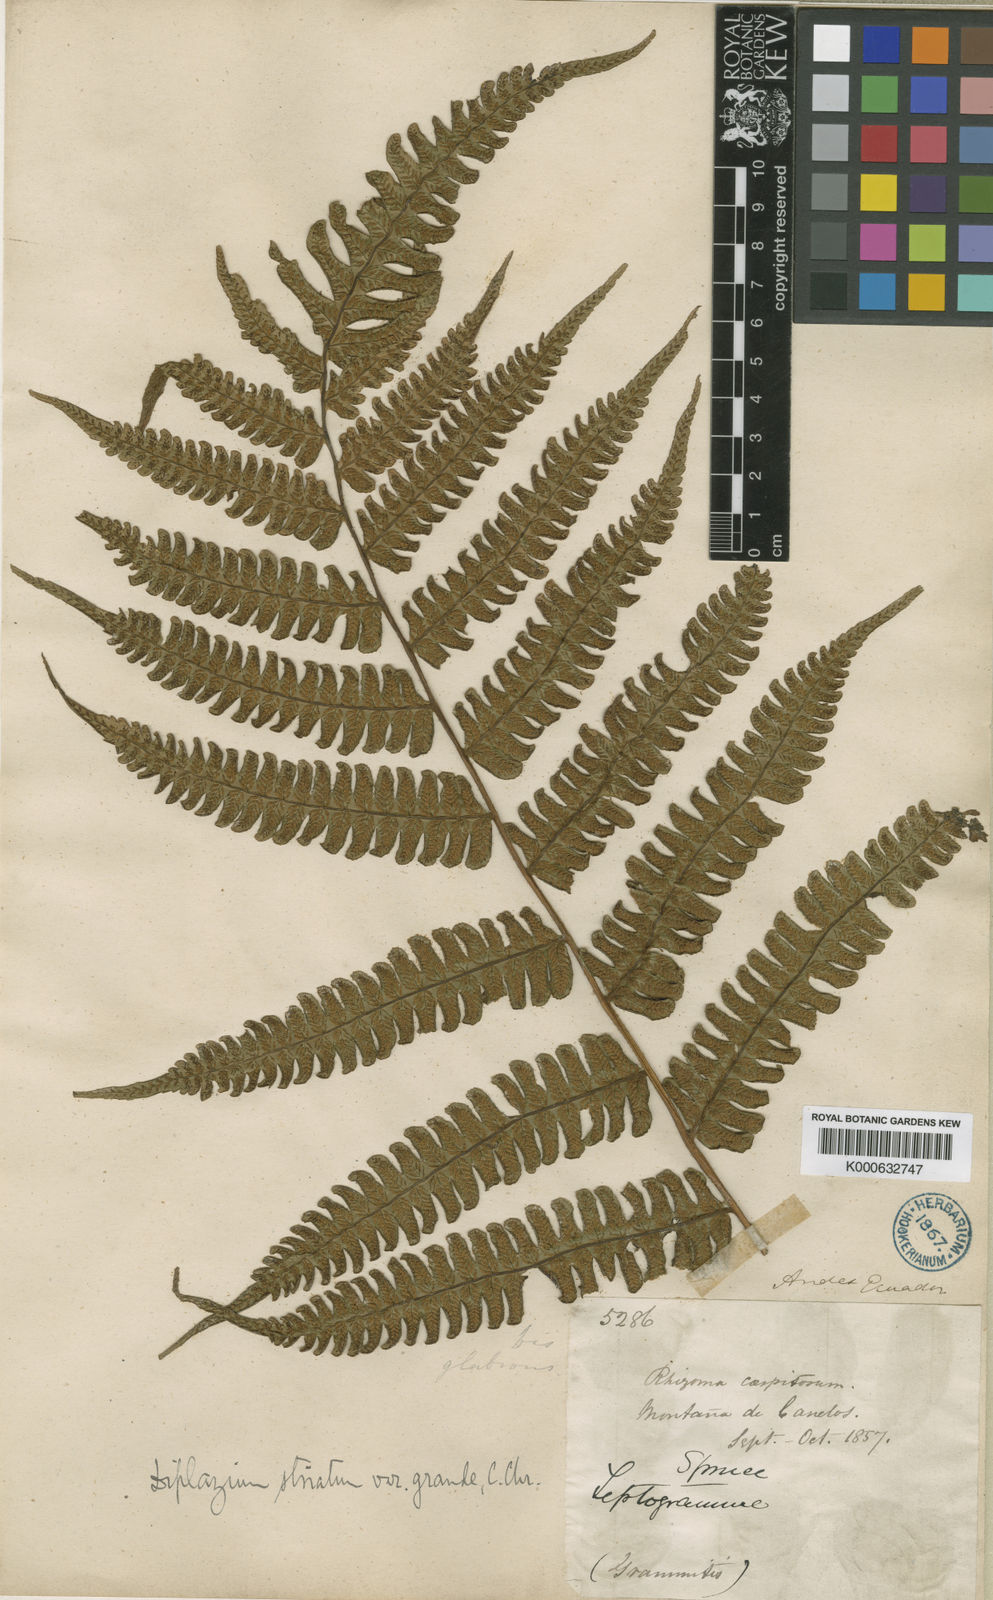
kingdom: Plantae
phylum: Tracheophyta
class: Polypodiopsida
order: Polypodiales
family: Athyriaceae
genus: Diplazium
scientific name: Diplazium lindbergii
